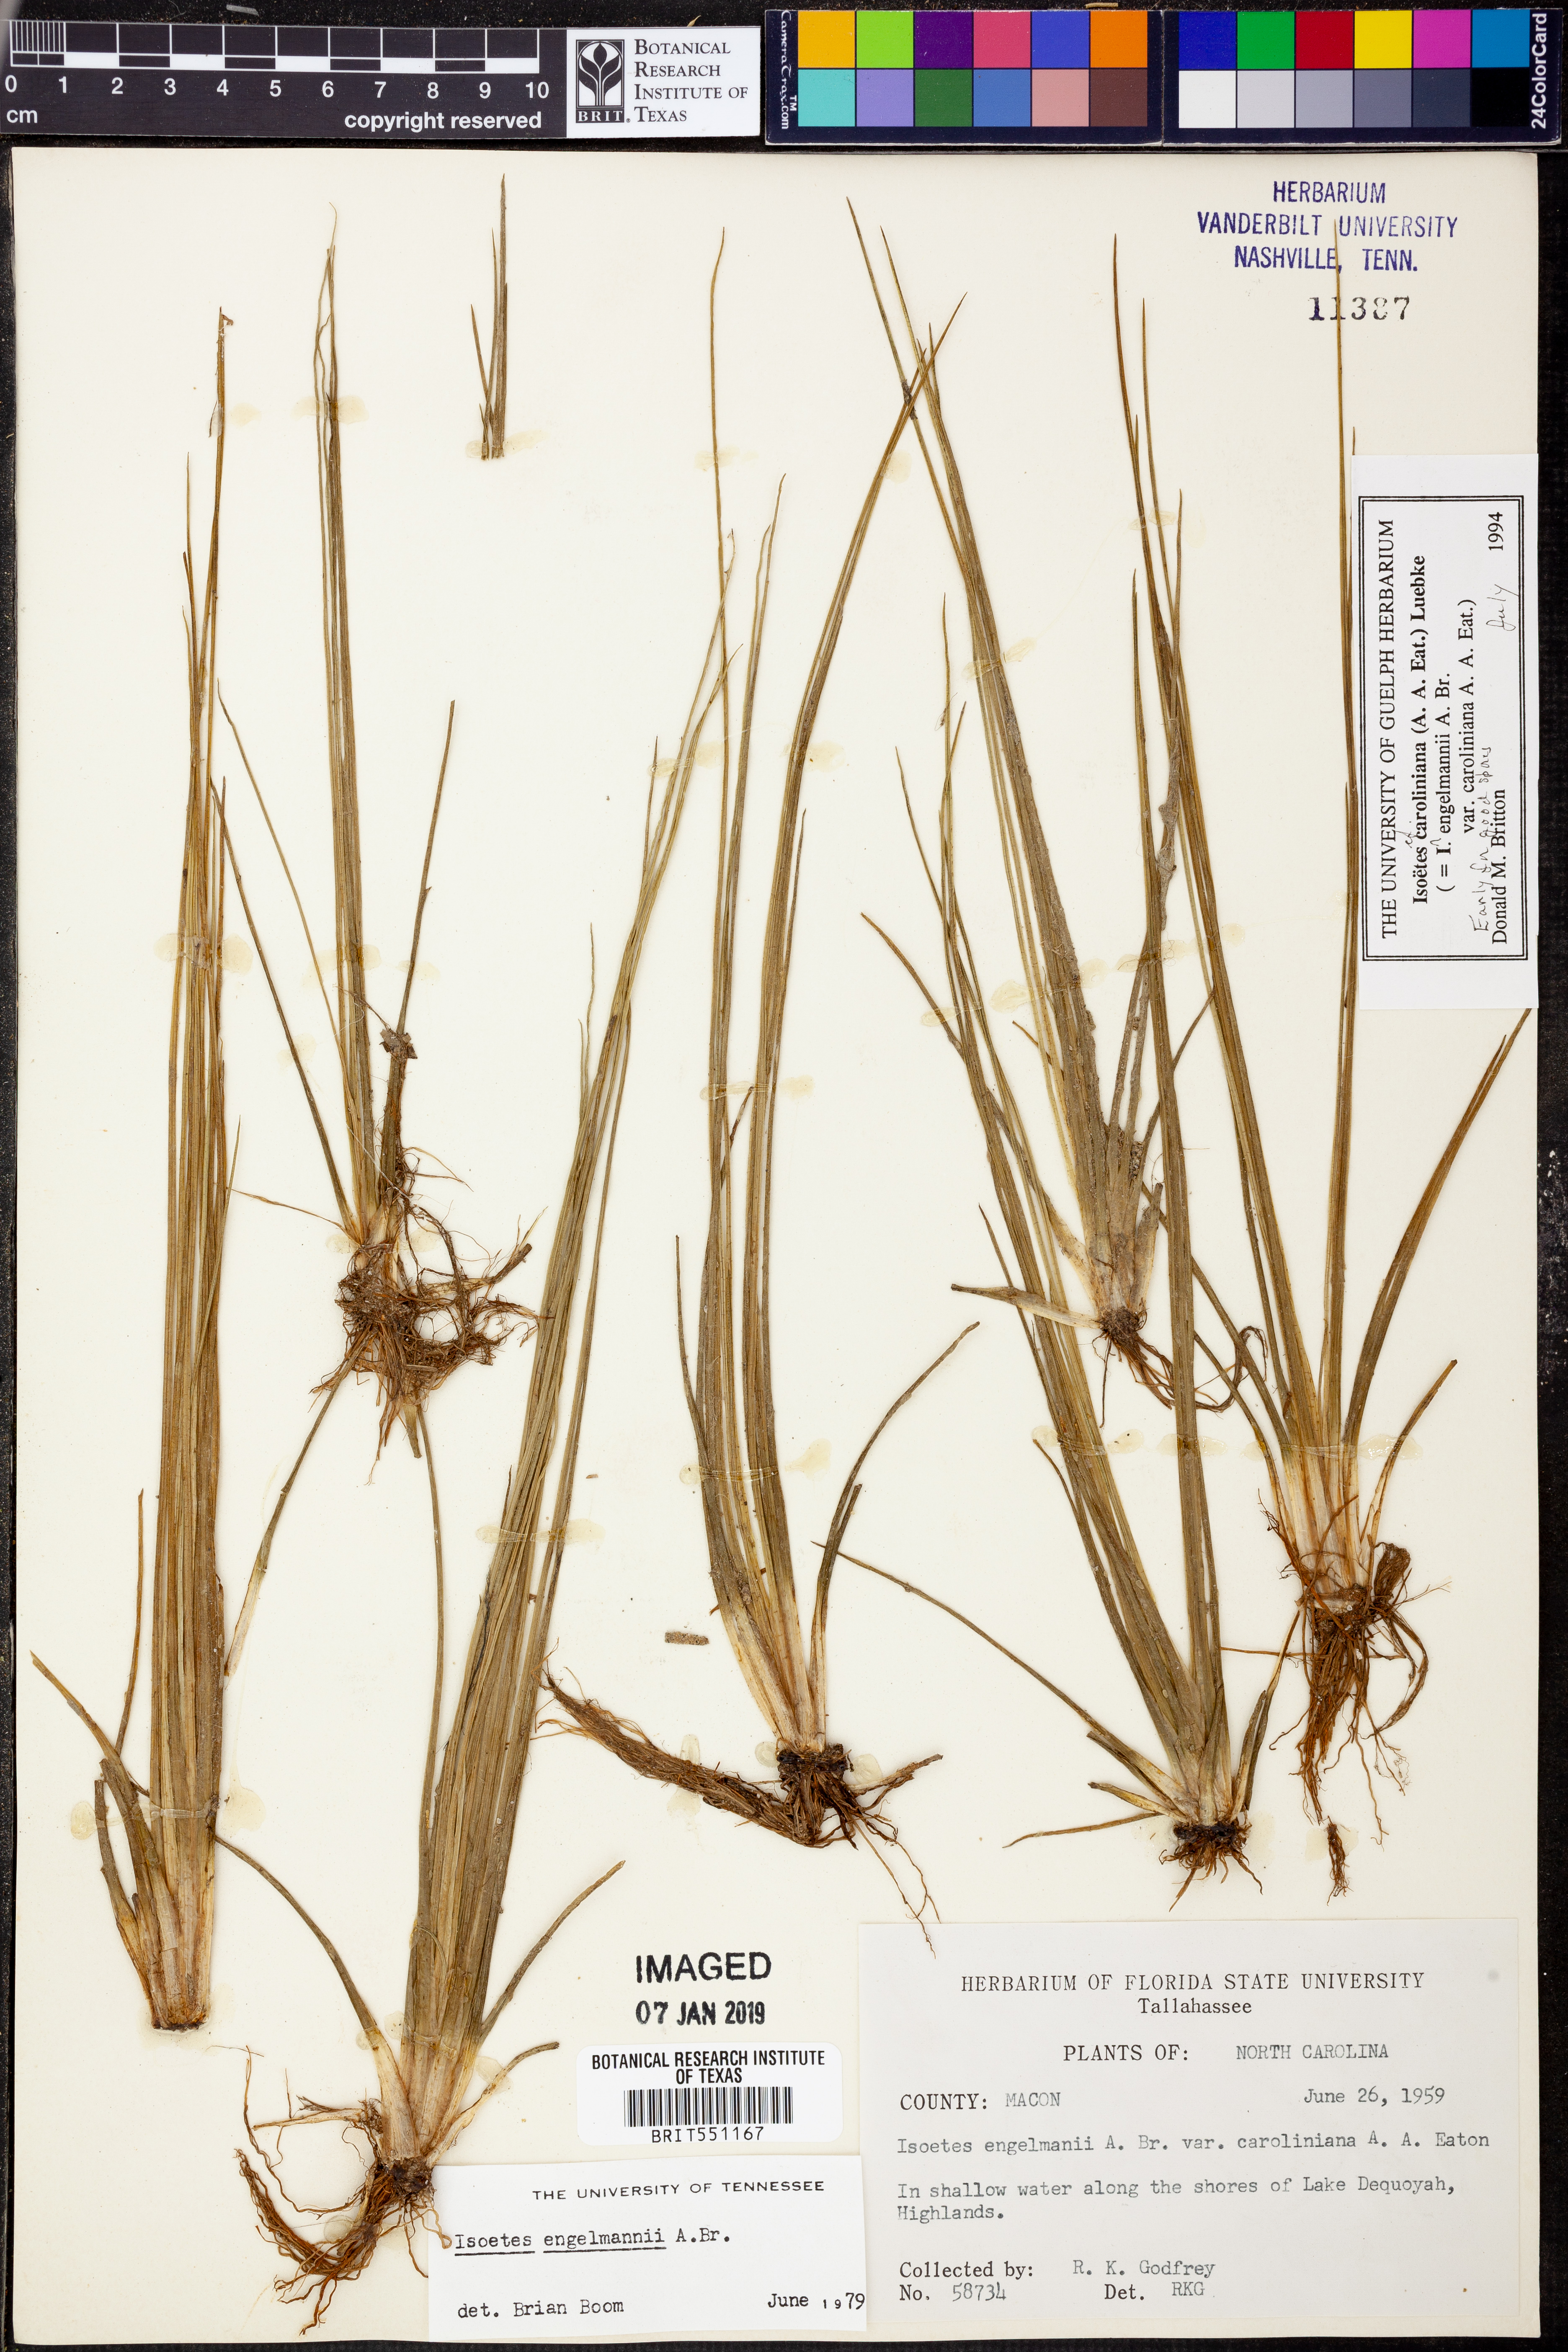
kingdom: Plantae
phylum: Tracheophyta
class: Lycopodiopsida
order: Isoetales
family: Isoetaceae
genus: Isoetes
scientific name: Isoetes caroliniana
